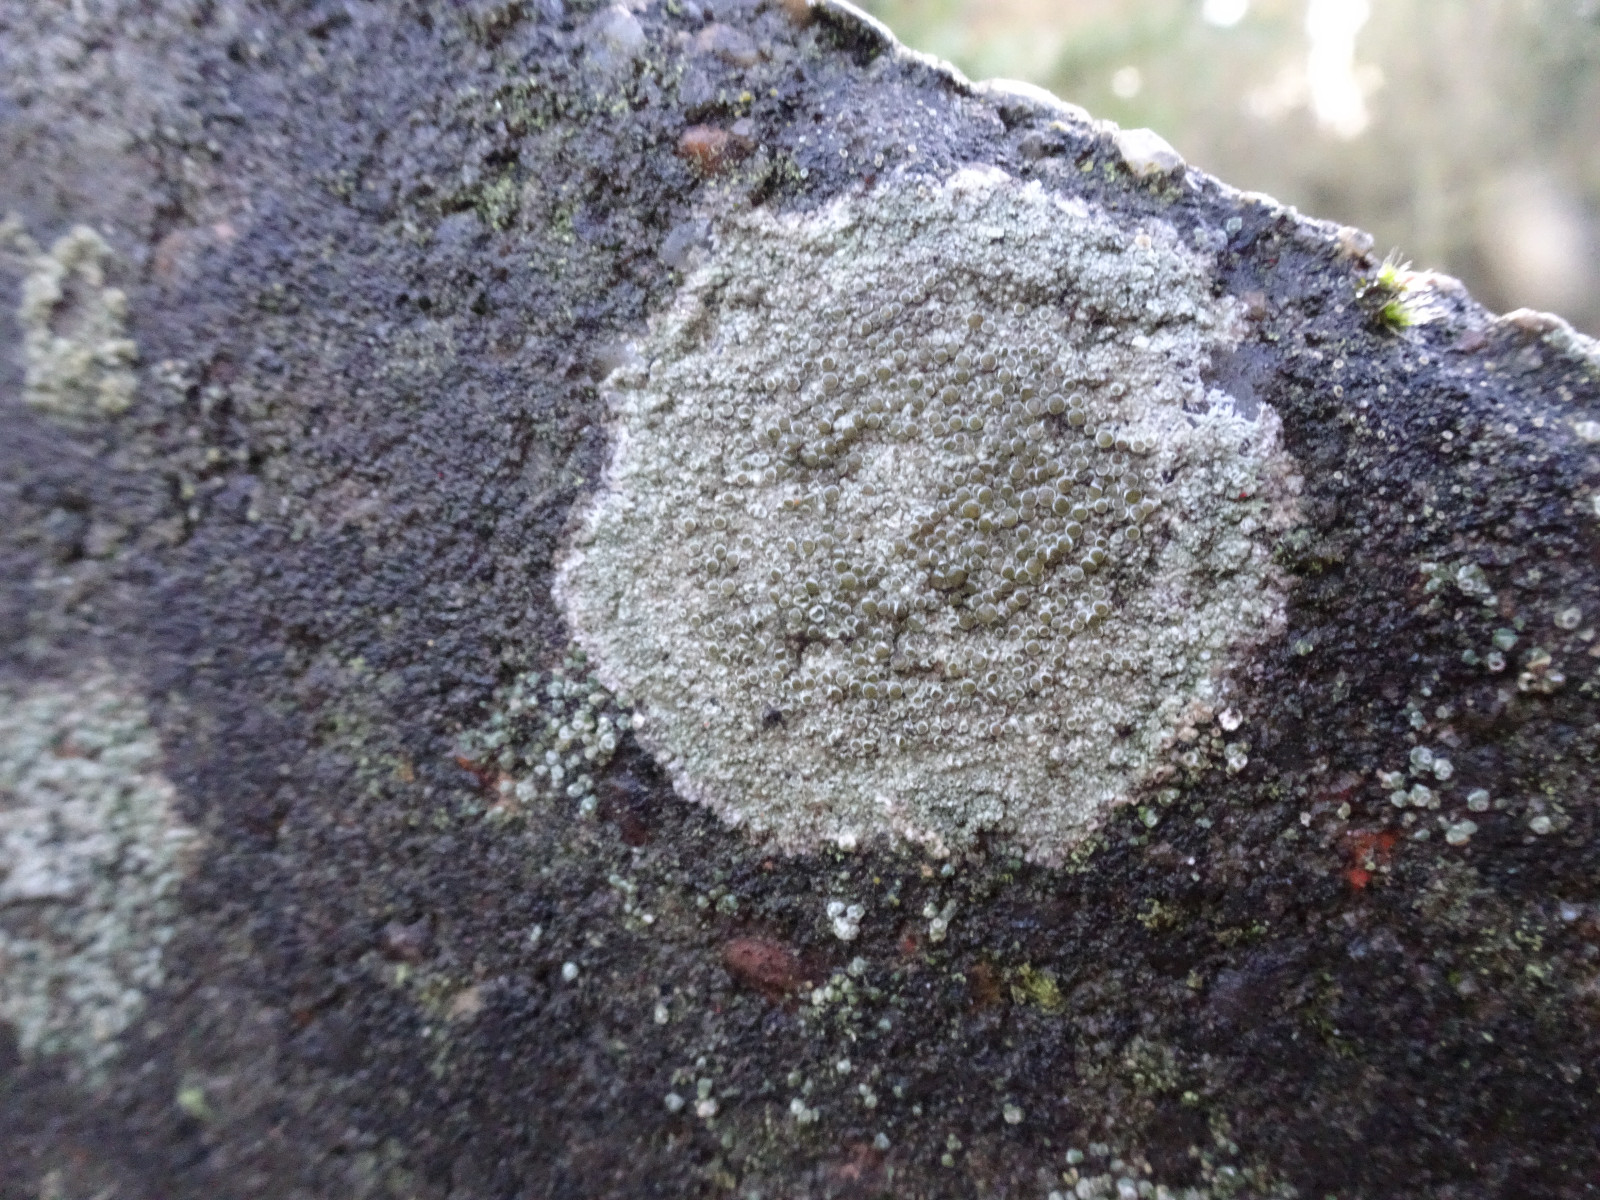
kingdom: Fungi
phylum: Ascomycota
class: Lecanoromycetes
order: Lecanorales
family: Lecanoraceae
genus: Lecanora
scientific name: Lecanora campestris
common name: mur-kantskivelav
